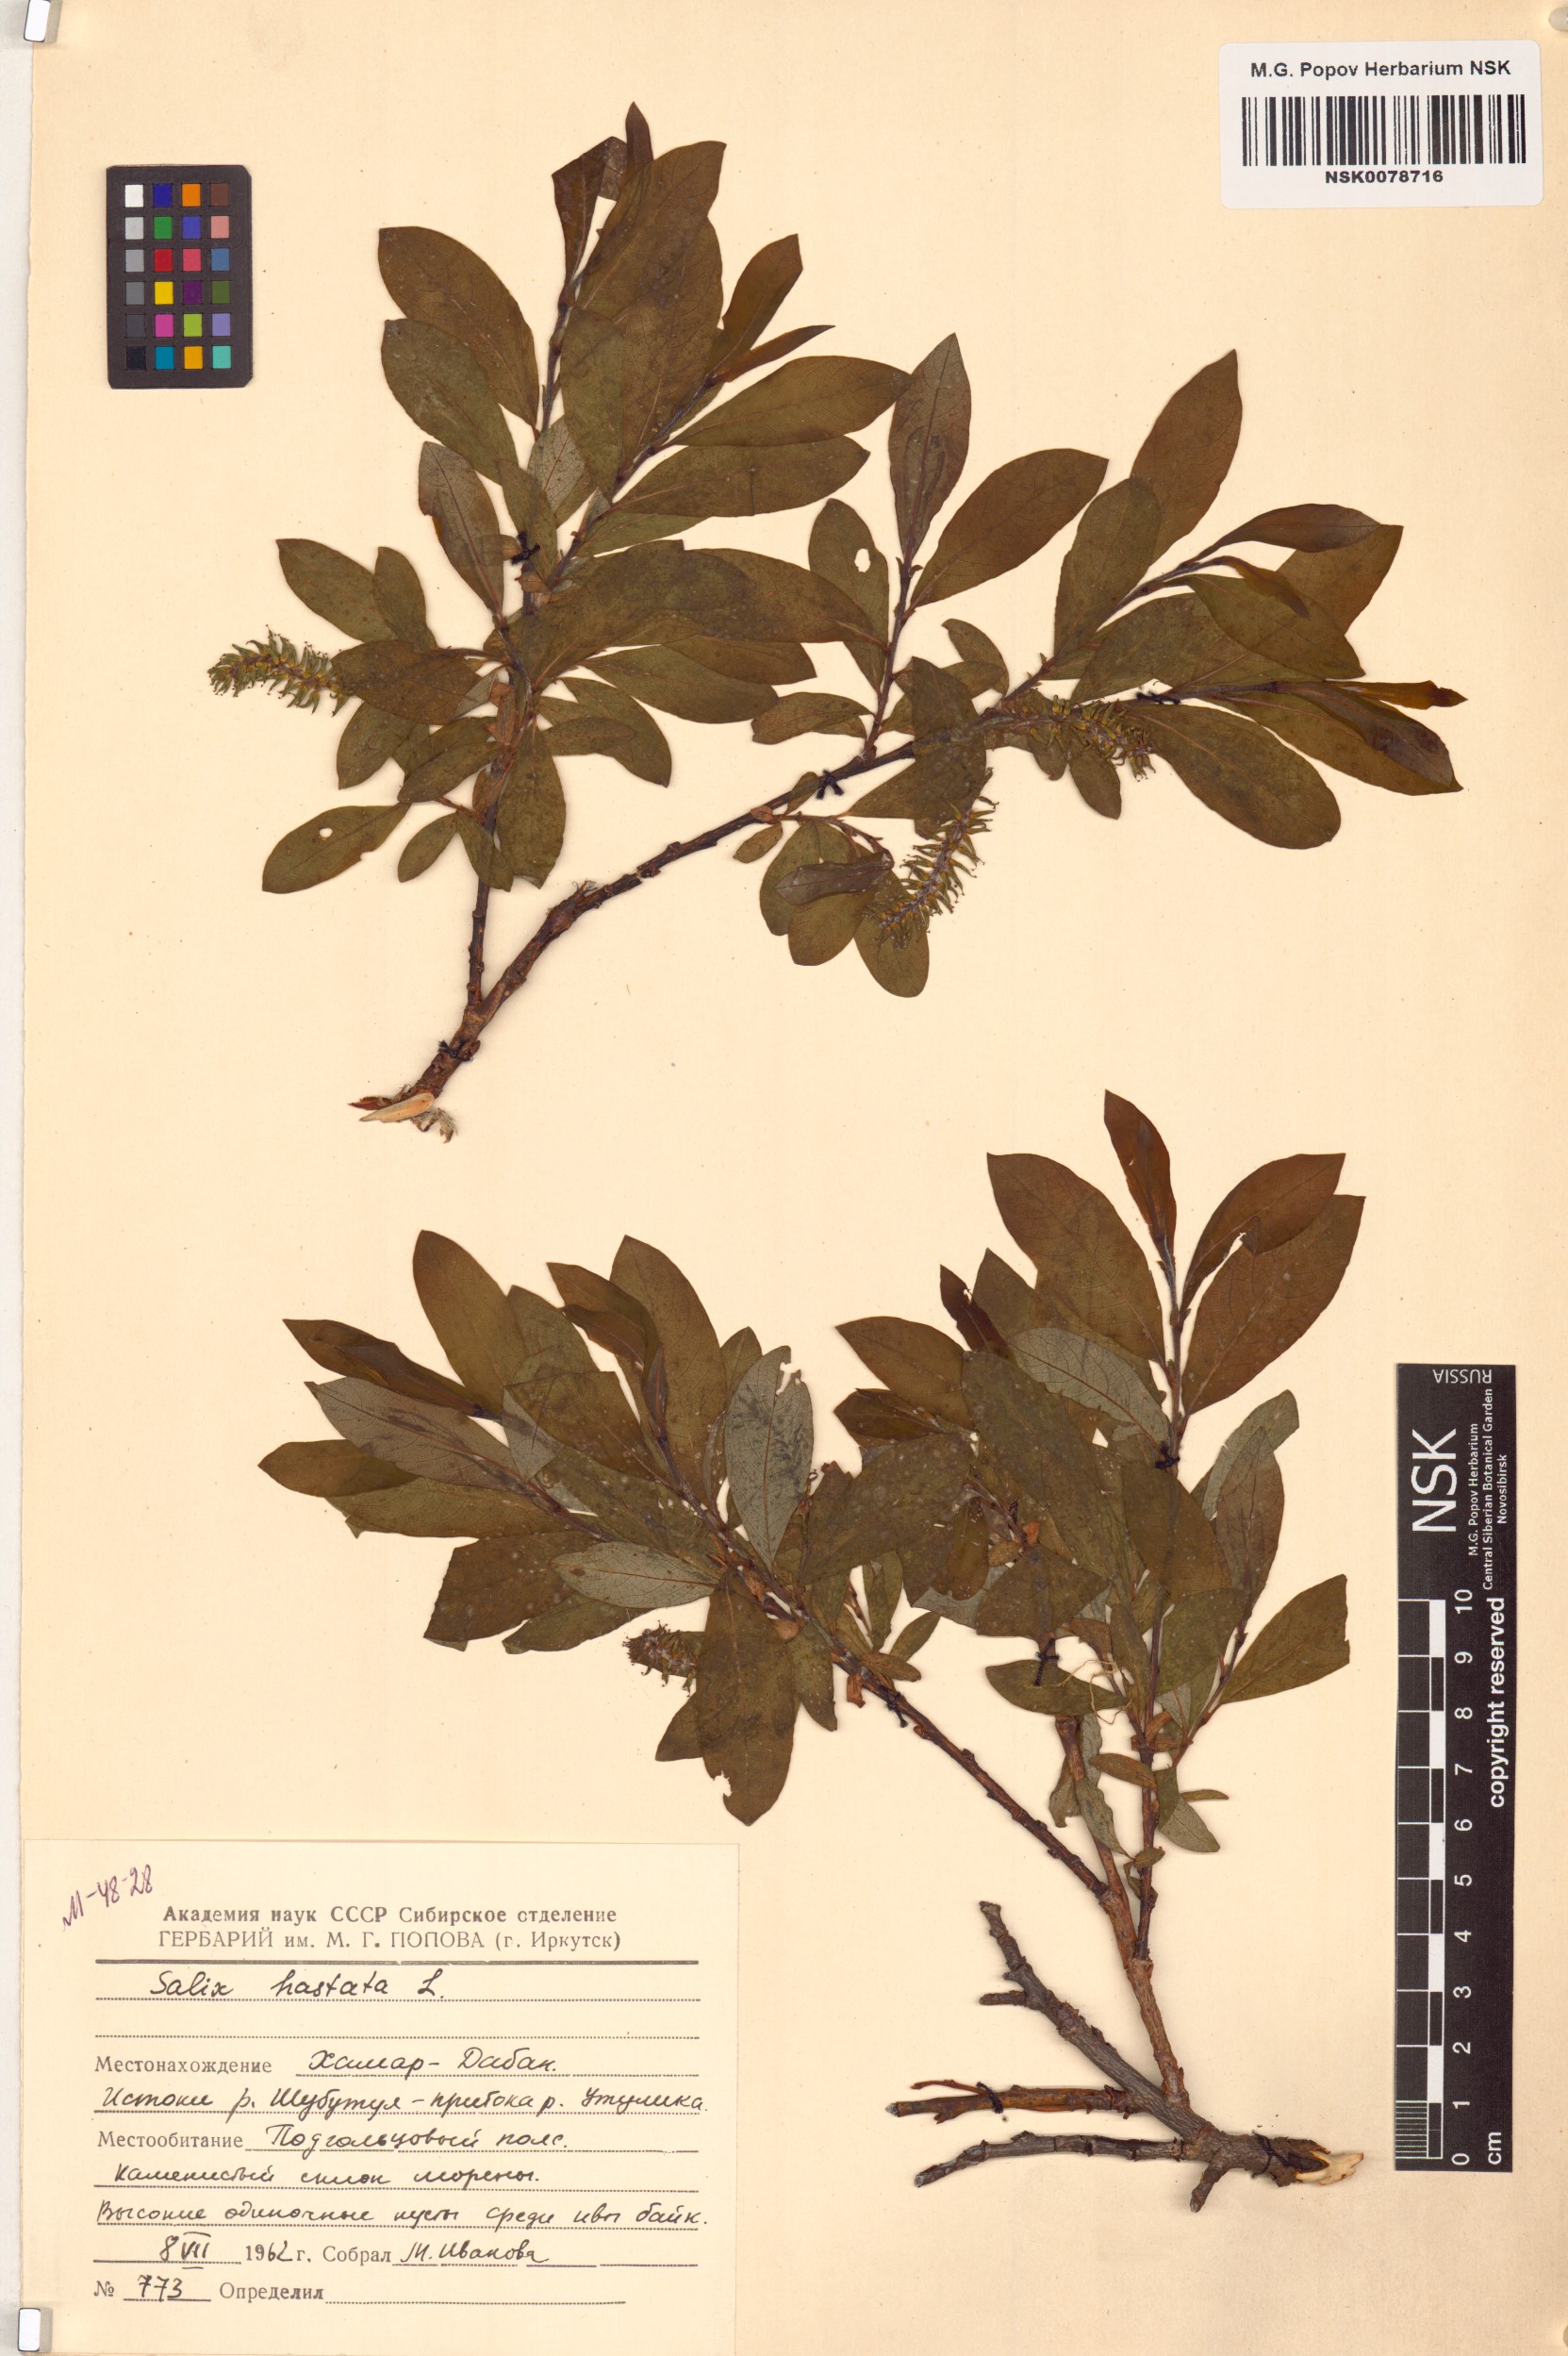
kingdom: Plantae
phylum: Tracheophyta
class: Magnoliopsida
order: Malpighiales
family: Salicaceae
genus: Salix
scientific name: Salix hastata
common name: Halberd willow
